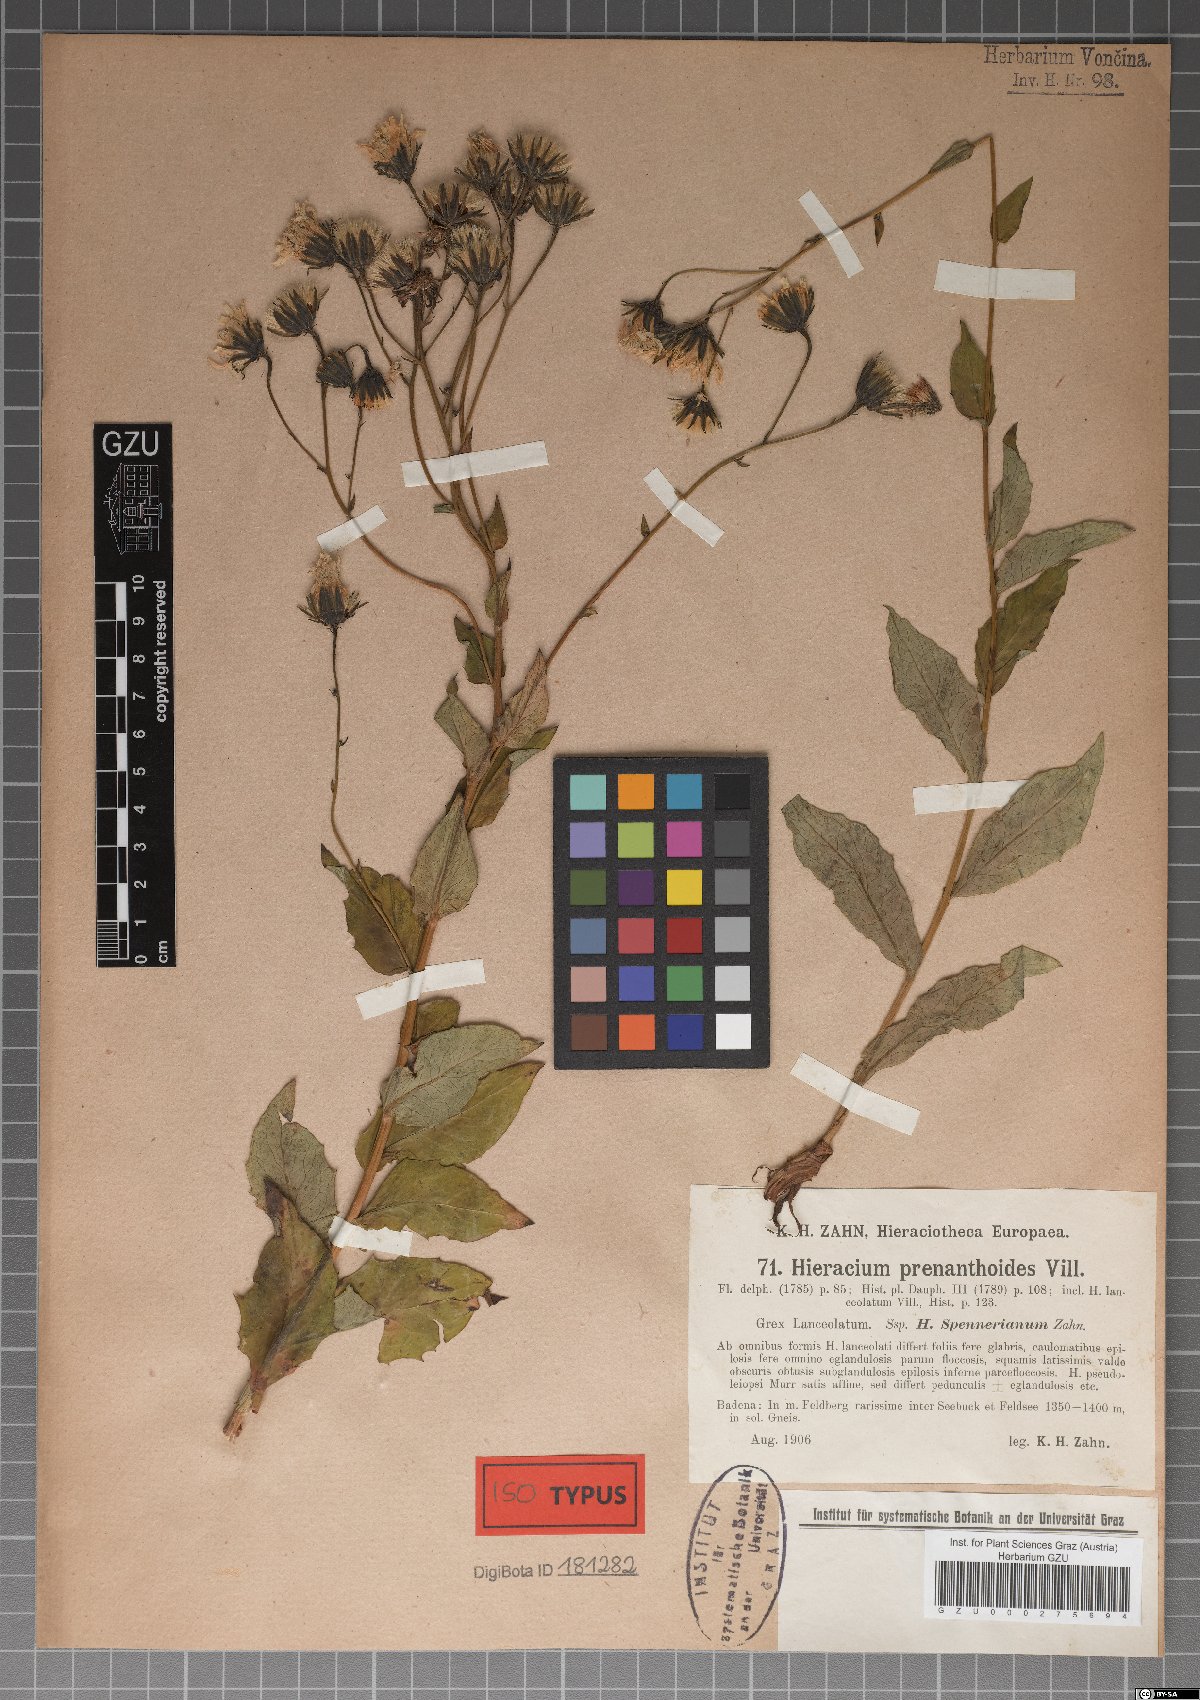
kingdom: Plantae
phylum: Tracheophyta
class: Magnoliopsida
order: Asterales
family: Asteraceae
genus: Hieracium
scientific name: Hieracium prenanthoides
